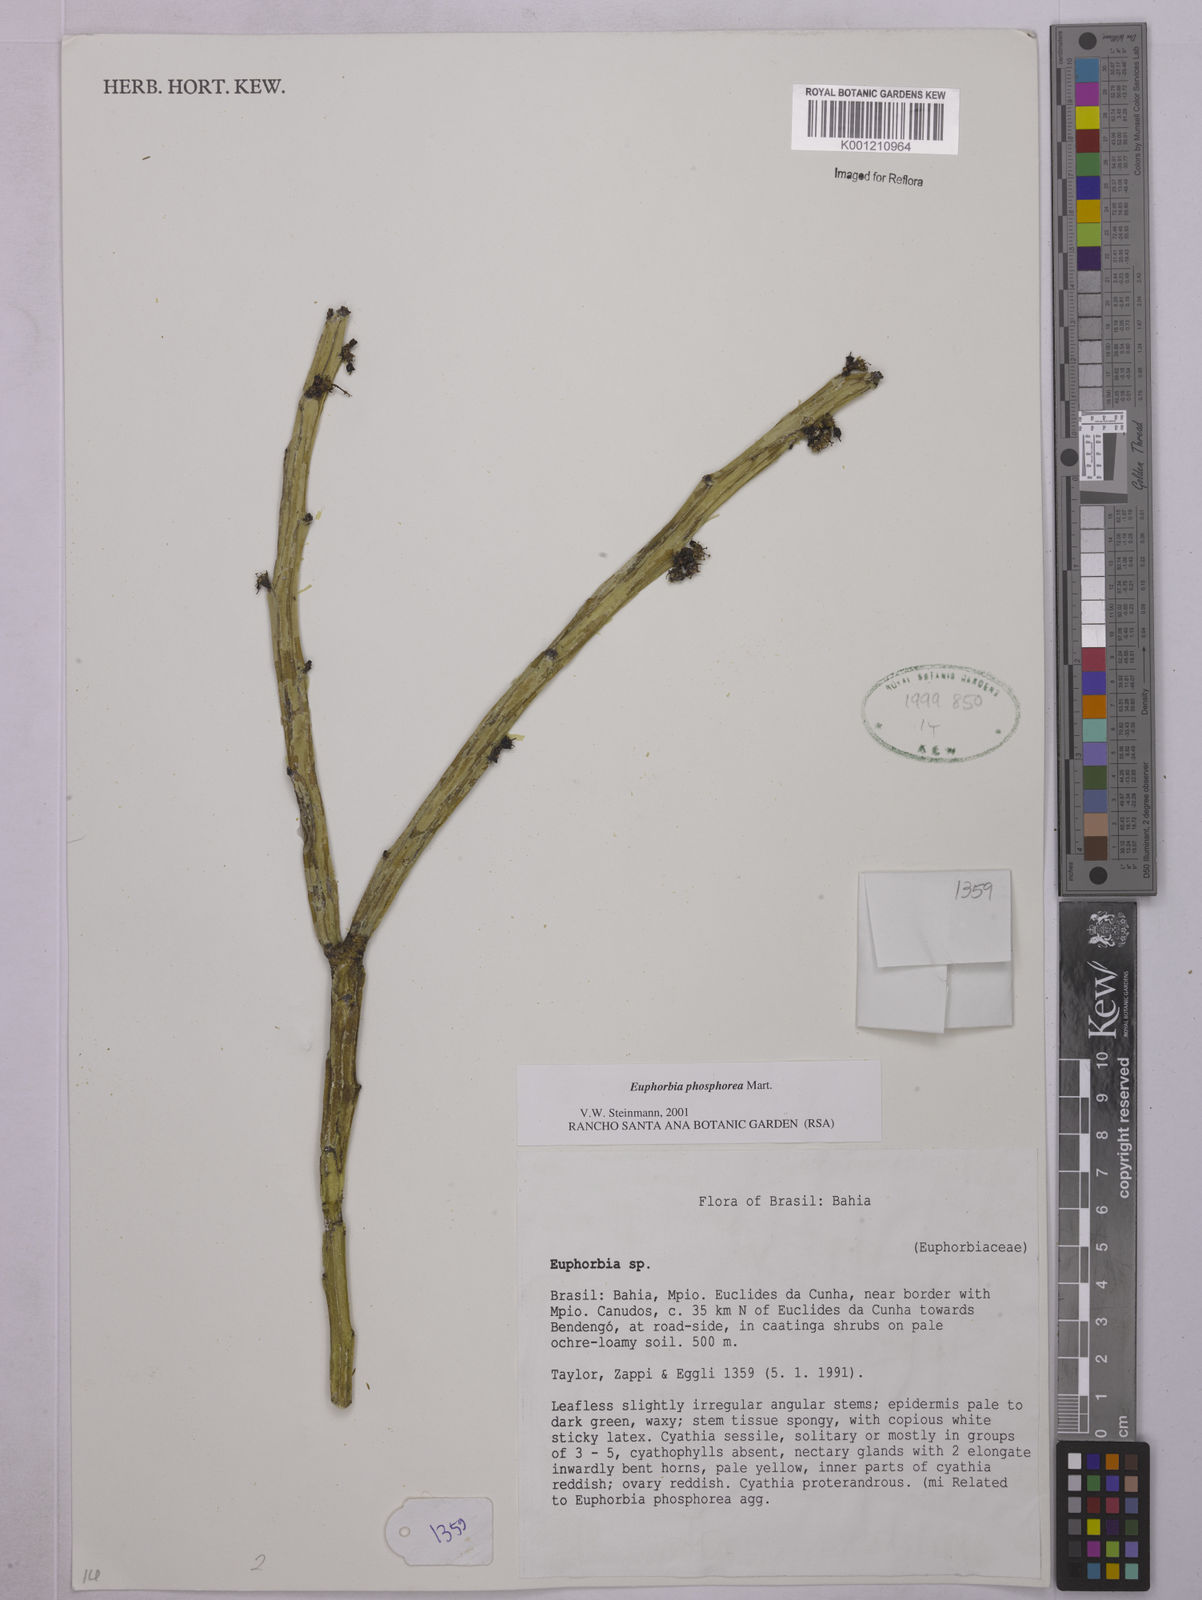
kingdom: Plantae
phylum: Tracheophyta
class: Magnoliopsida
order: Malpighiales
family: Euphorbiaceae
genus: Euphorbia
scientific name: Euphorbia phosphorea
